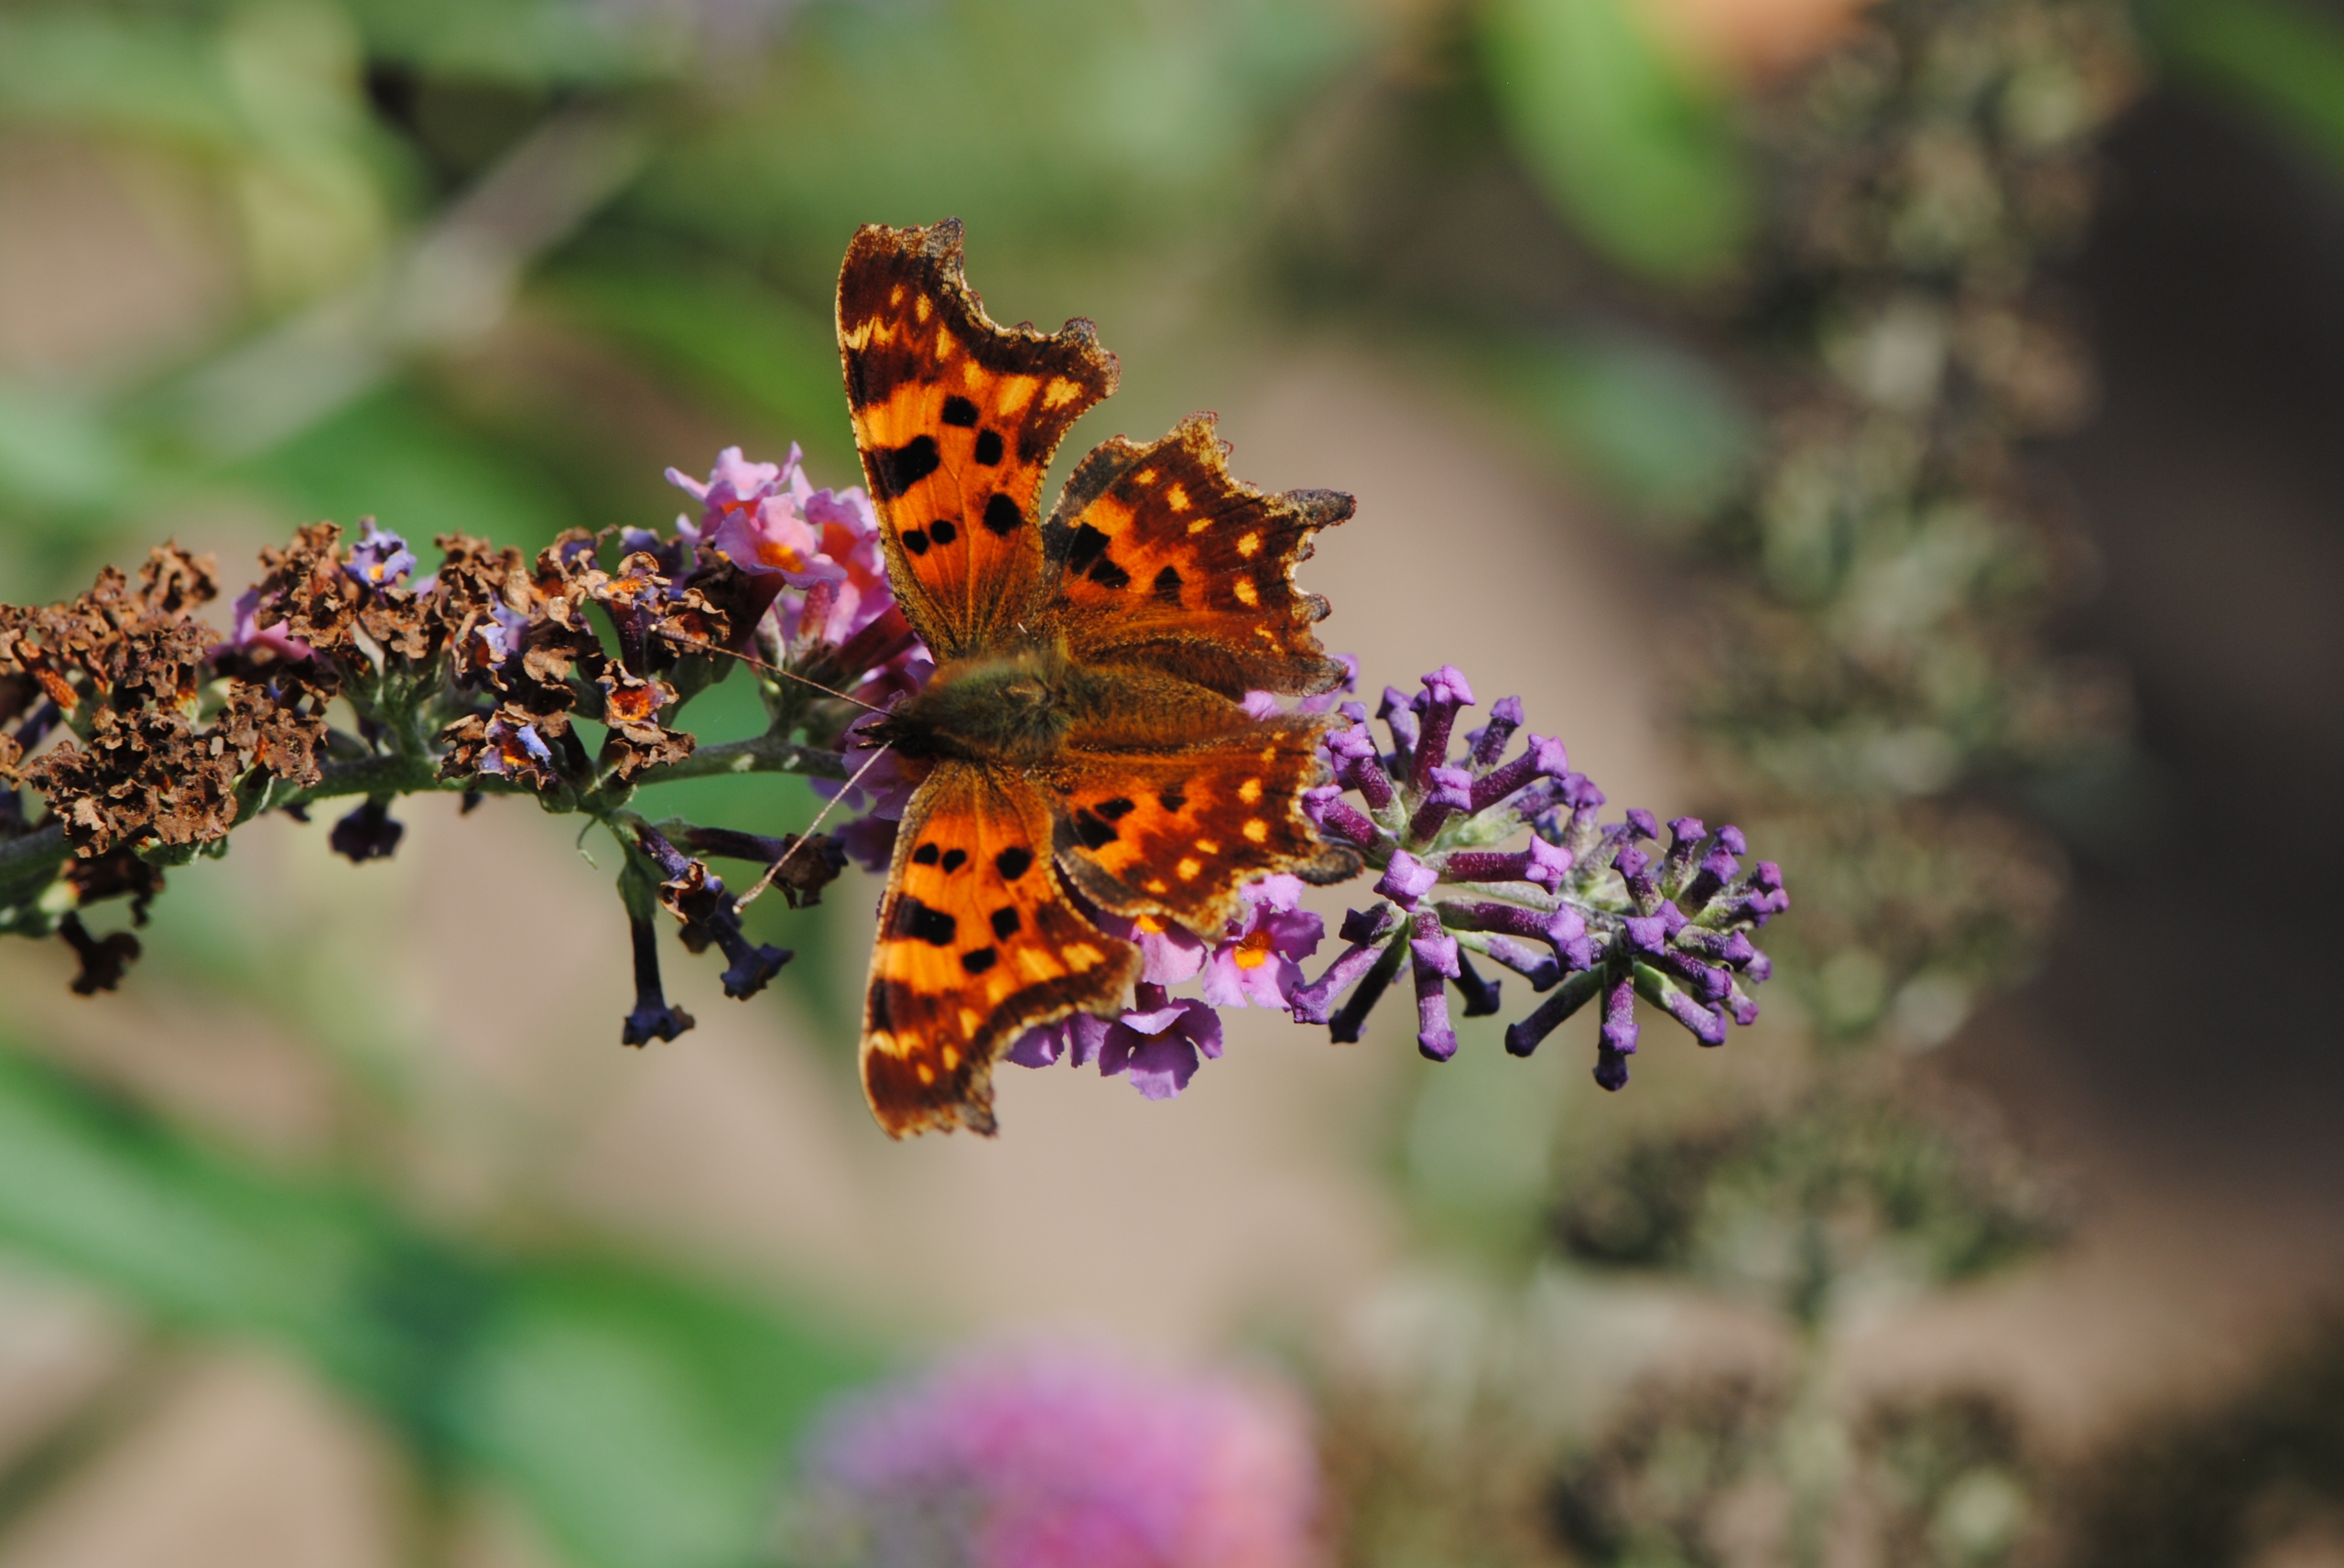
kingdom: Animalia
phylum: Arthropoda
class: Insecta
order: Lepidoptera
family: Nymphalidae
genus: Polygonia
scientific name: Polygonia c-album
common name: Det hvide C
